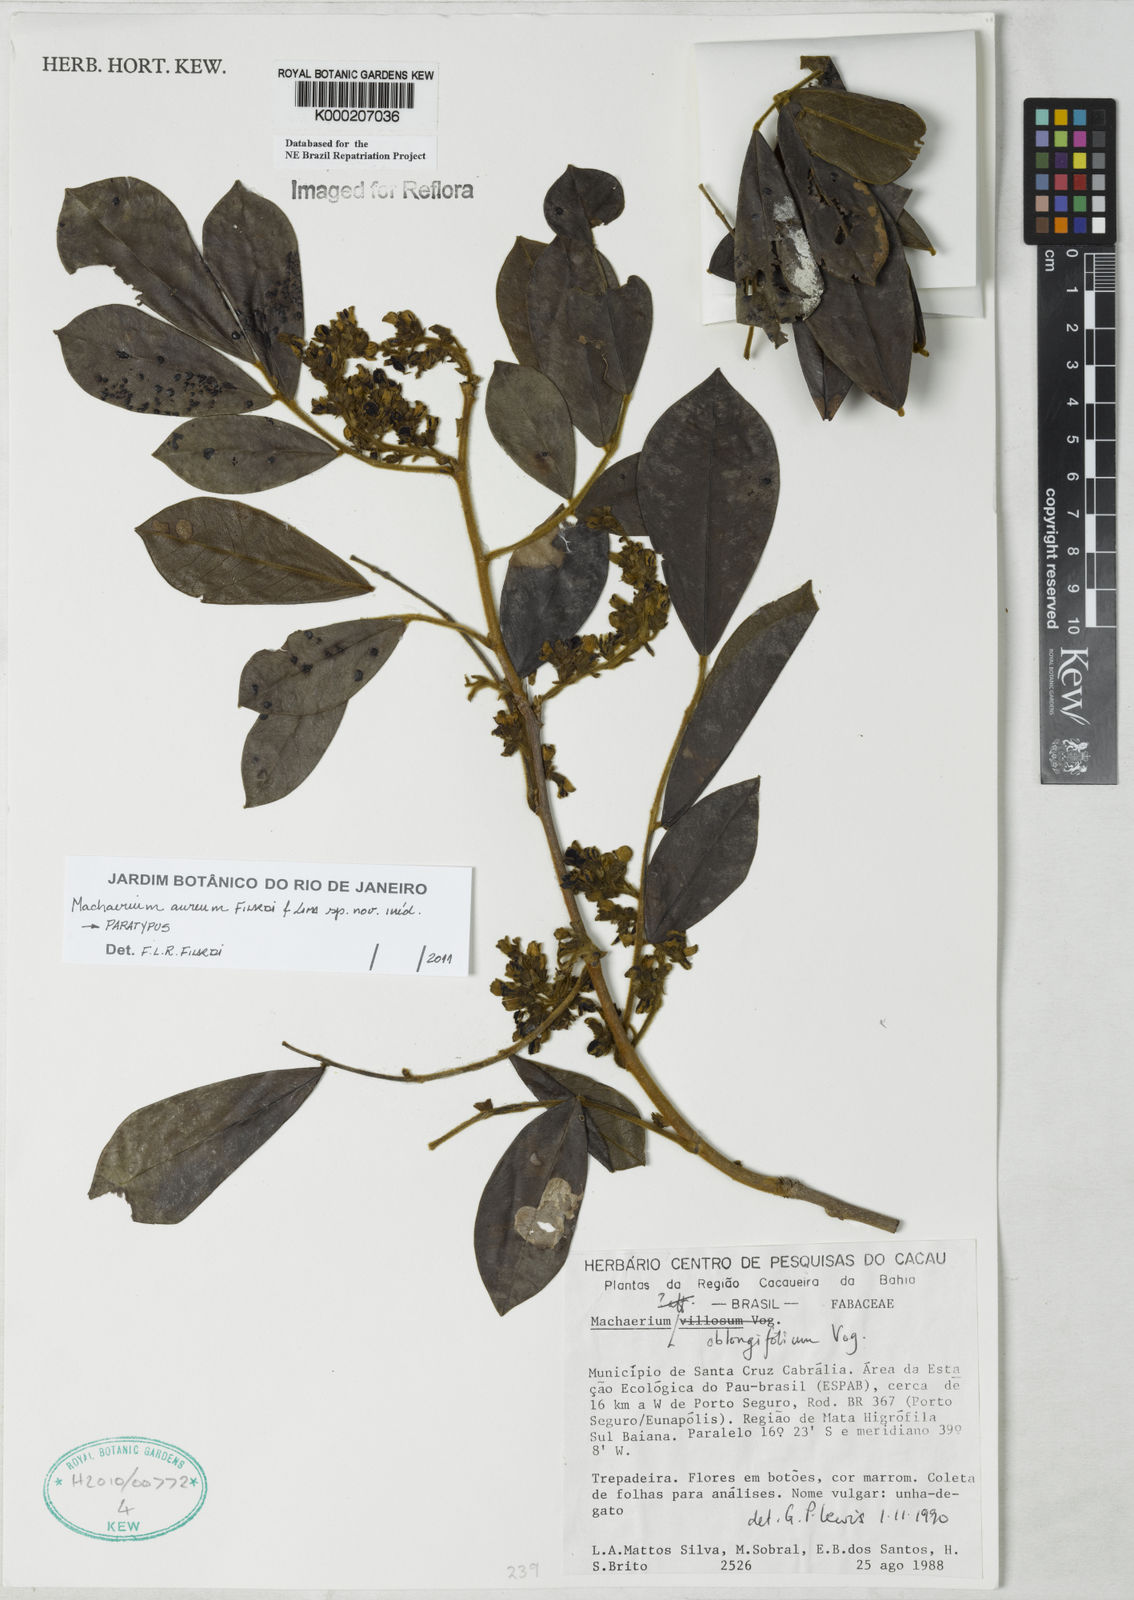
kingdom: Plantae
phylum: Tracheophyta
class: Magnoliopsida
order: Fabales
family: Fabaceae
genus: Machaerium
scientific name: Machaerium oblongifolium
